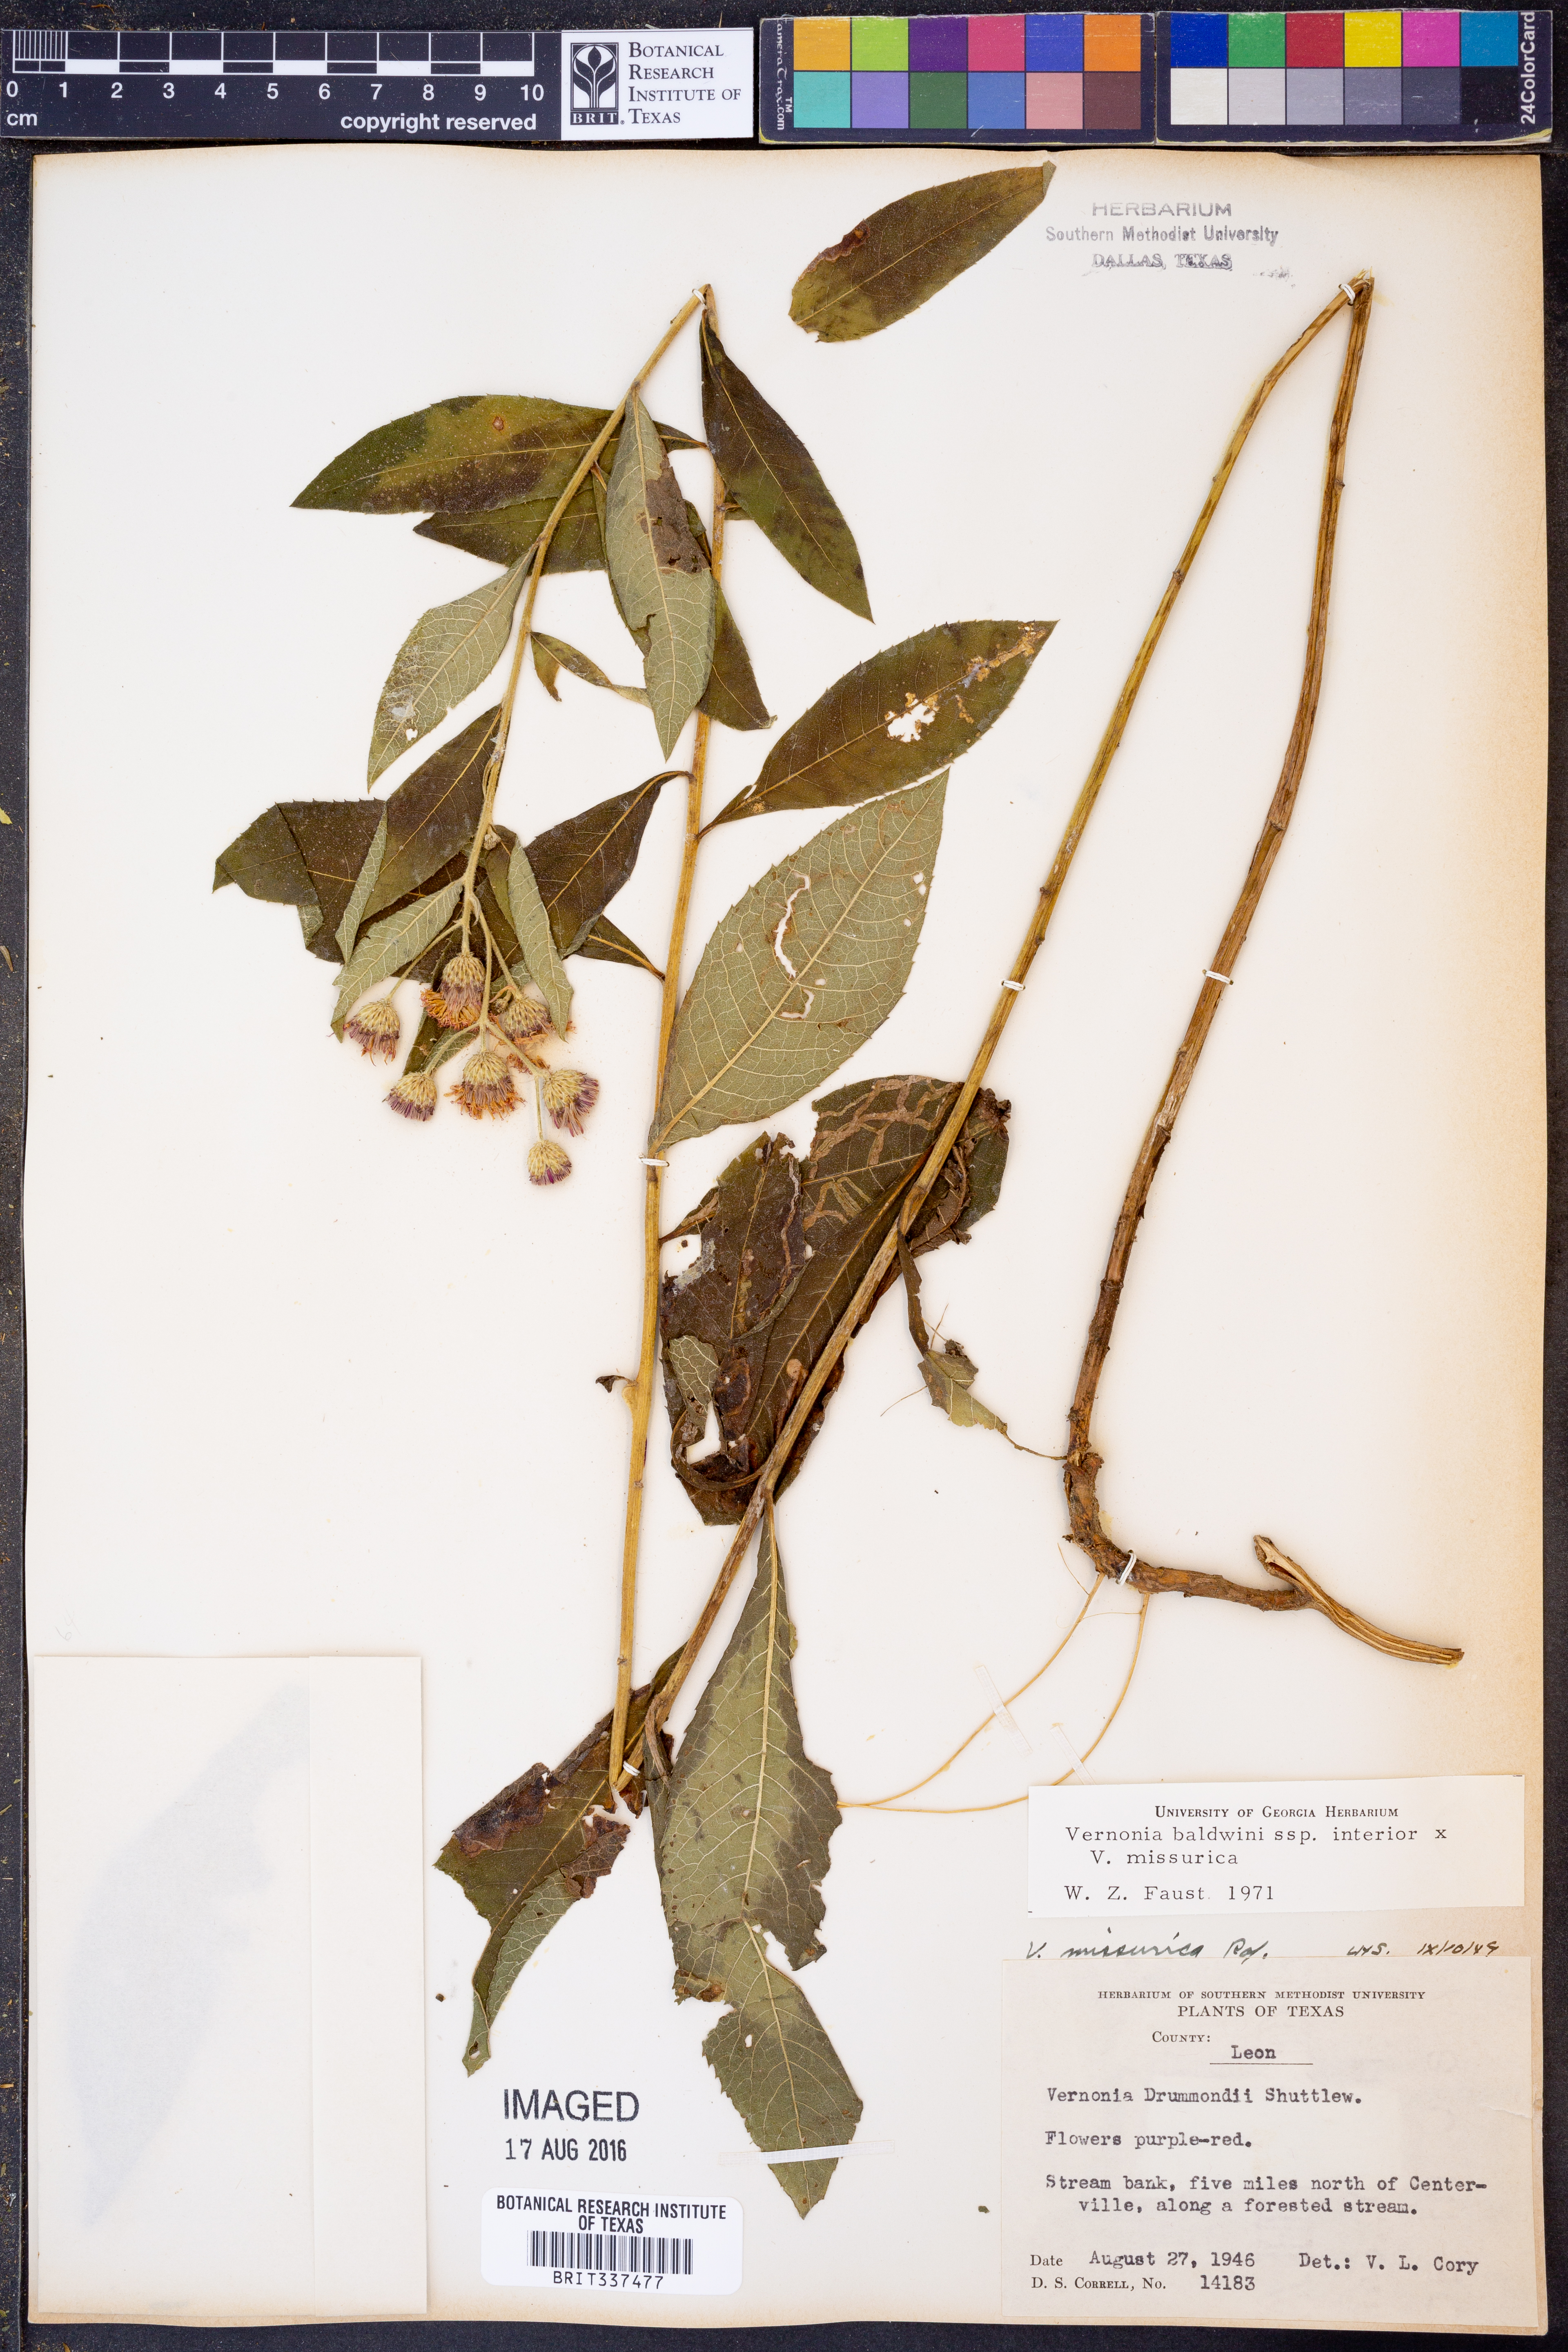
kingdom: Plantae
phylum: Tracheophyta
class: Magnoliopsida
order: Asterales
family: Asteraceae
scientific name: Asteraceae
